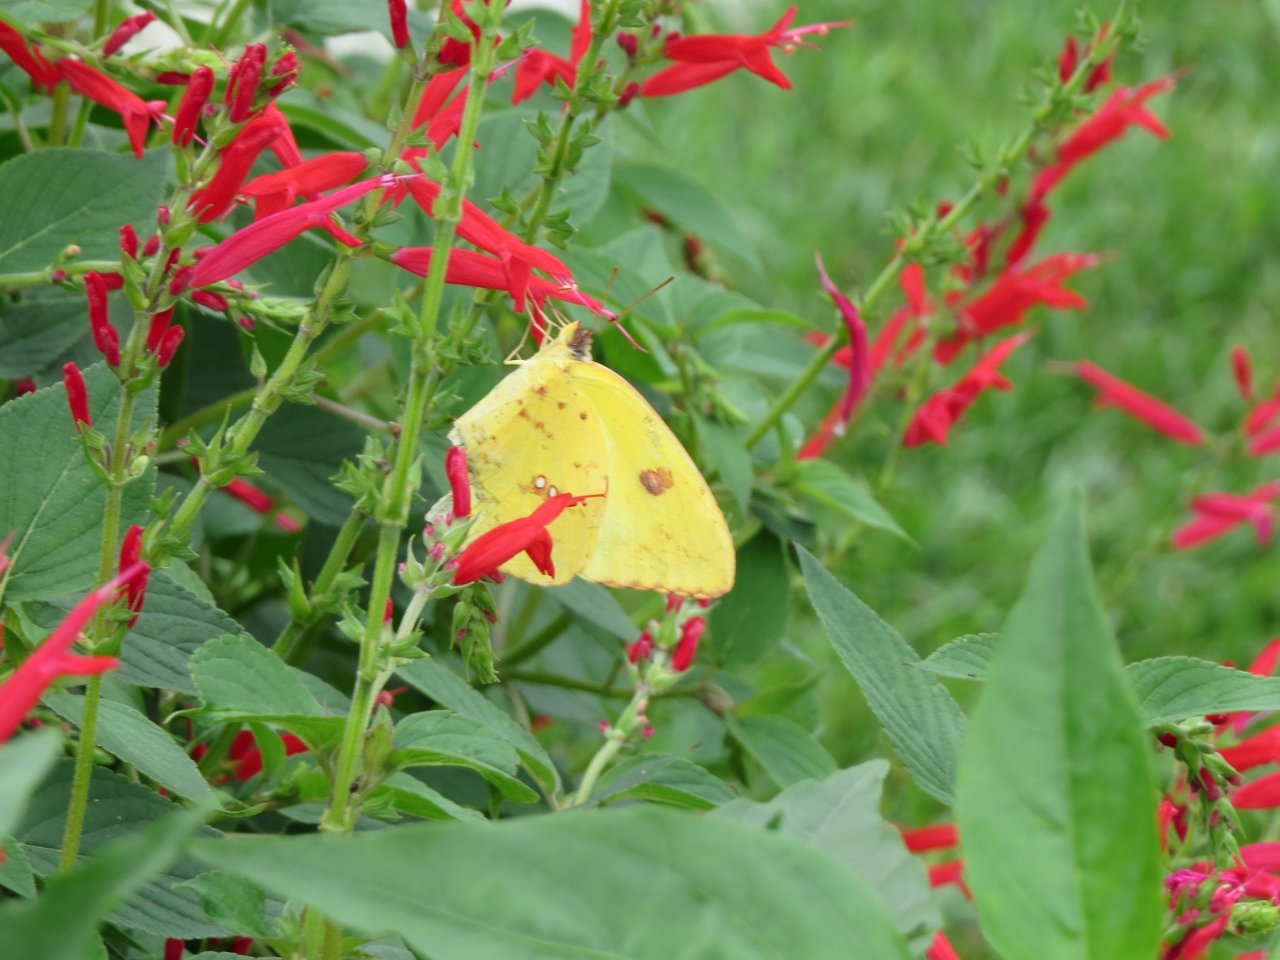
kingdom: Animalia
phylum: Arthropoda
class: Insecta
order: Lepidoptera
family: Pieridae
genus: Phoebis
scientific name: Phoebis sennae
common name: Cloudless Sulphur
